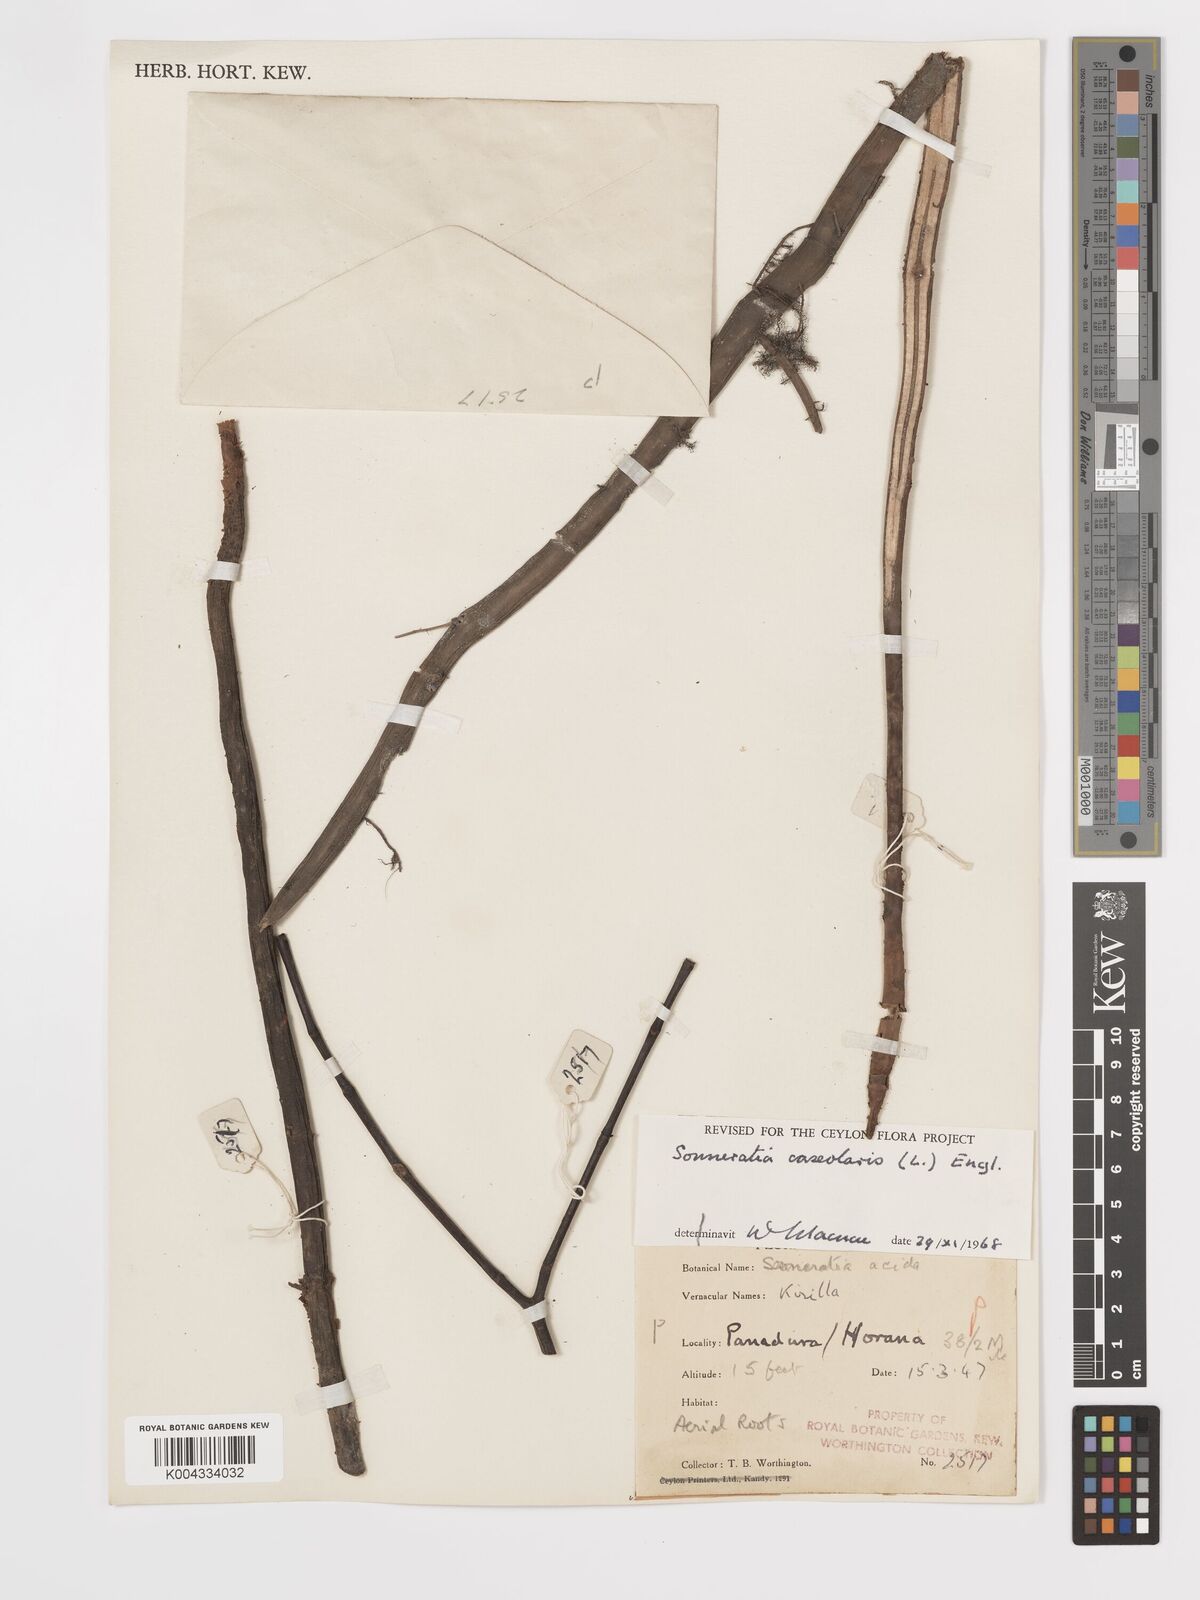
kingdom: Plantae
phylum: Tracheophyta
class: Magnoliopsida
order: Myrtales
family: Lythraceae
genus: Sonneratia
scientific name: Sonneratia caseolaris
